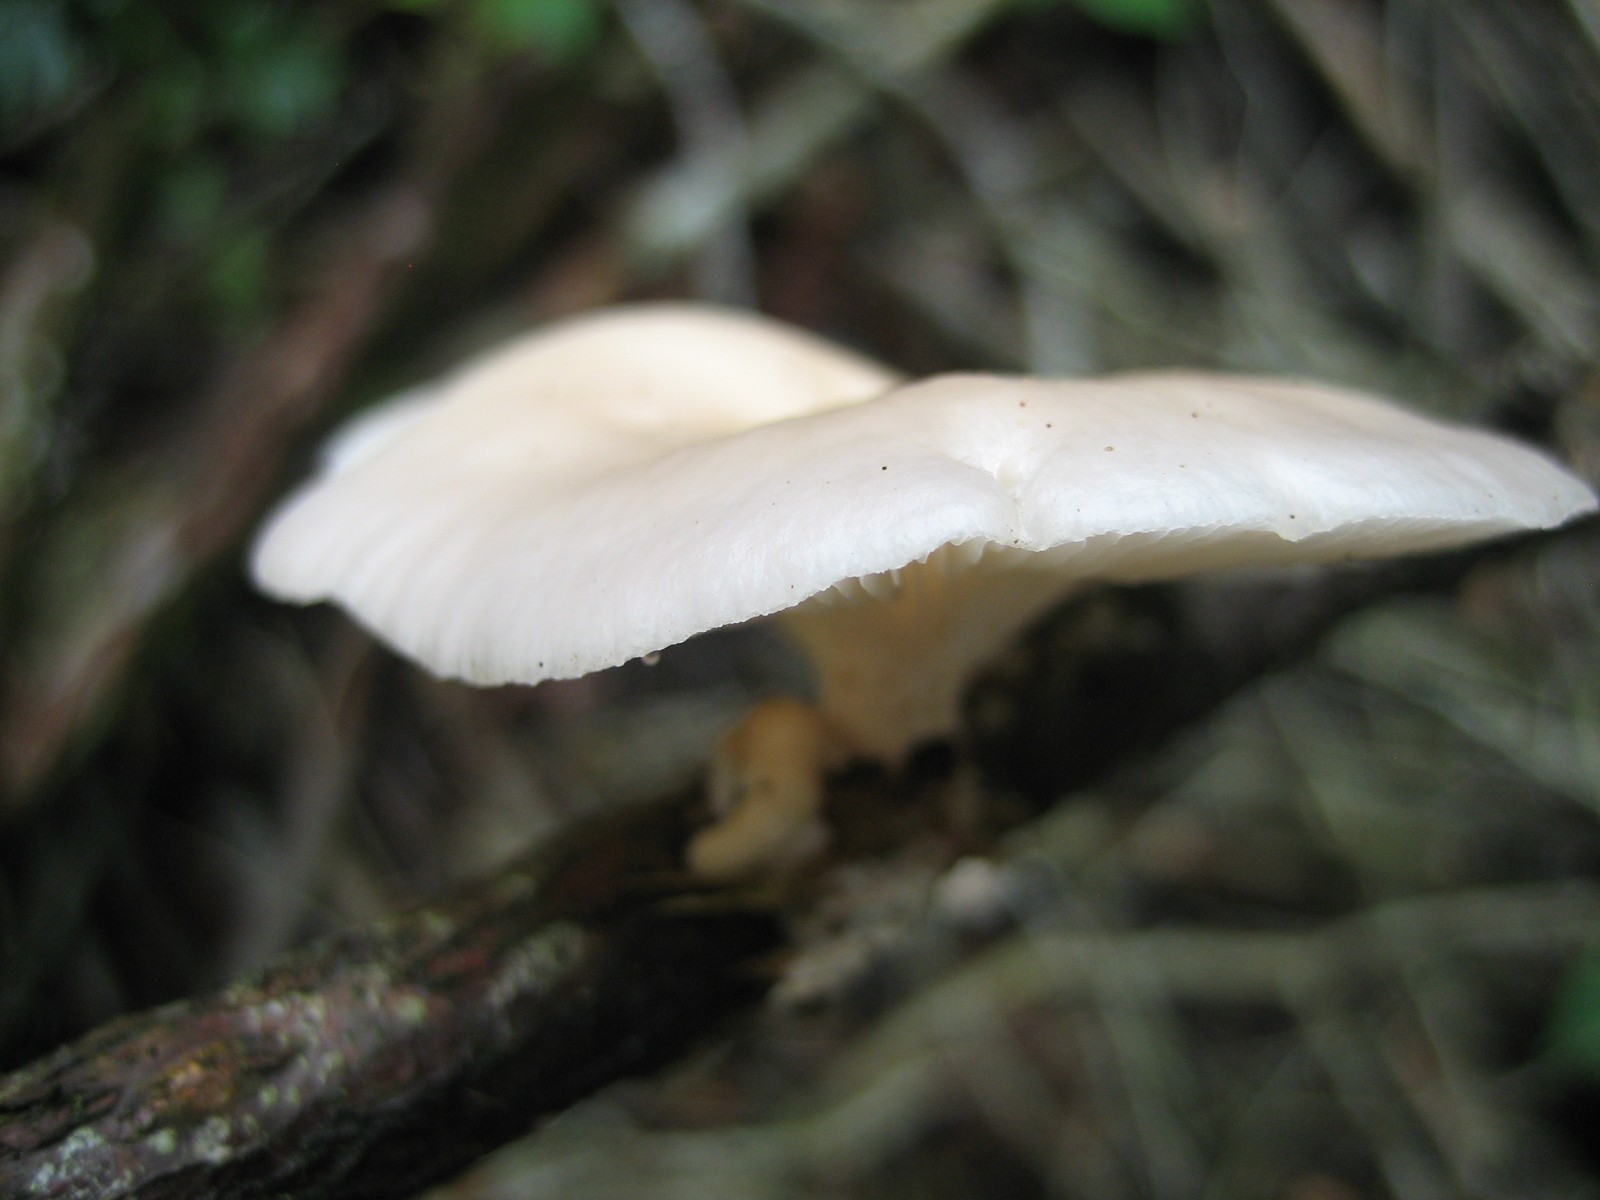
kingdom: Fungi
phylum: Basidiomycota
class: Agaricomycetes
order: Agaricales
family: Pleurotaceae
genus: Pleurotus
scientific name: Pleurotus pulmonarius
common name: sommer-østershat
